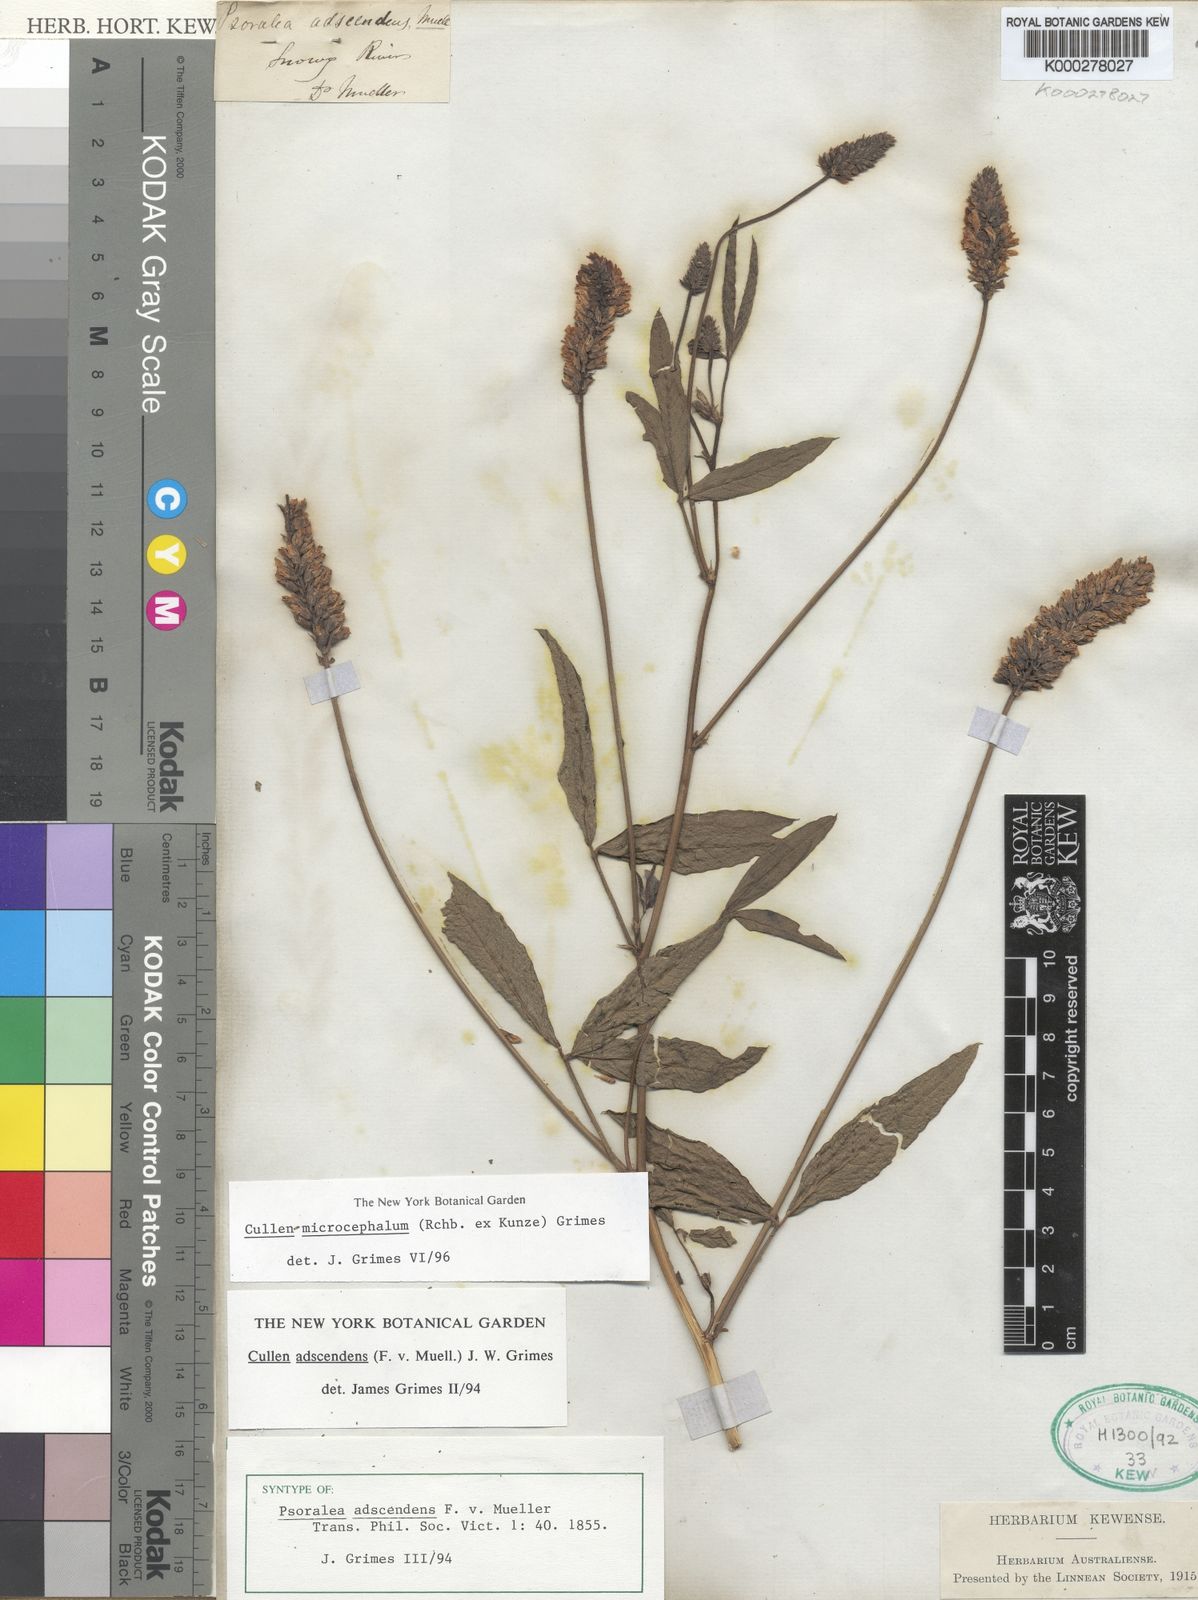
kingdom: Plantae
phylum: Tracheophyta
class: Magnoliopsida
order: Fabales
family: Fabaceae
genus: Cullen
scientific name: Cullen microcephalum
